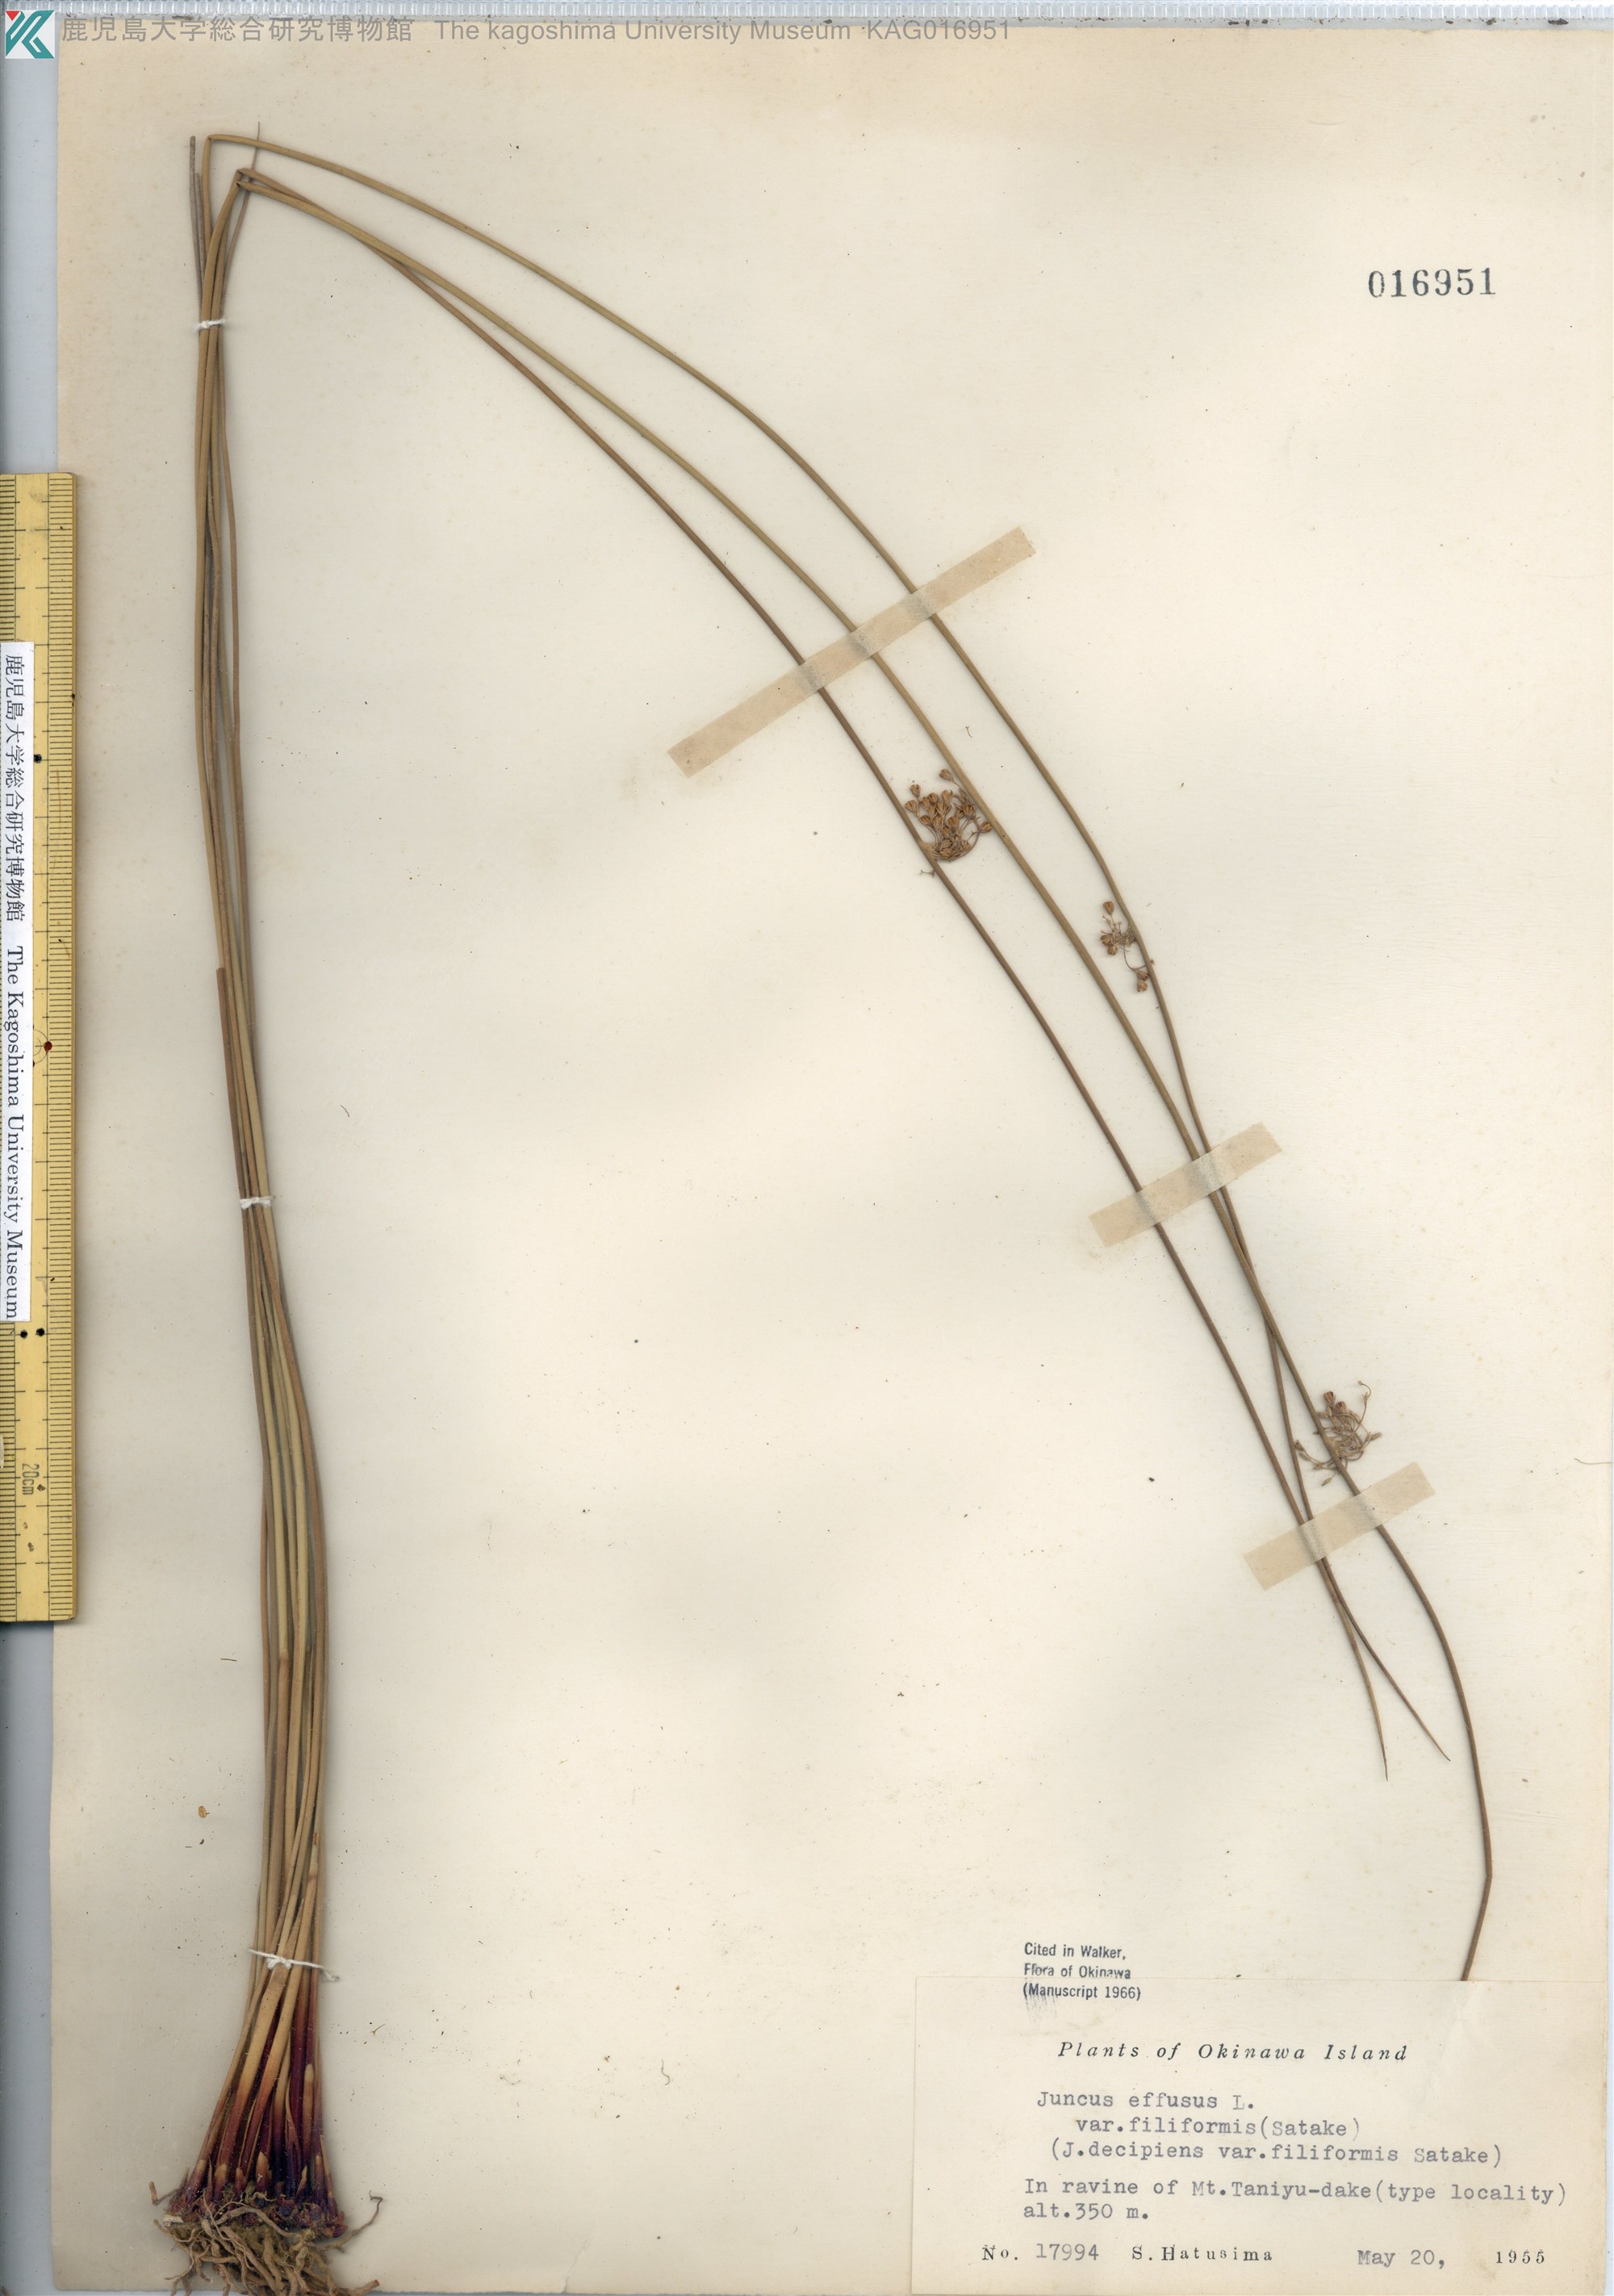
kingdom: Plantae
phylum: Tracheophyta
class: Liliopsida
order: Poales
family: Juncaceae
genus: Juncus
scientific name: Juncus decipiens
